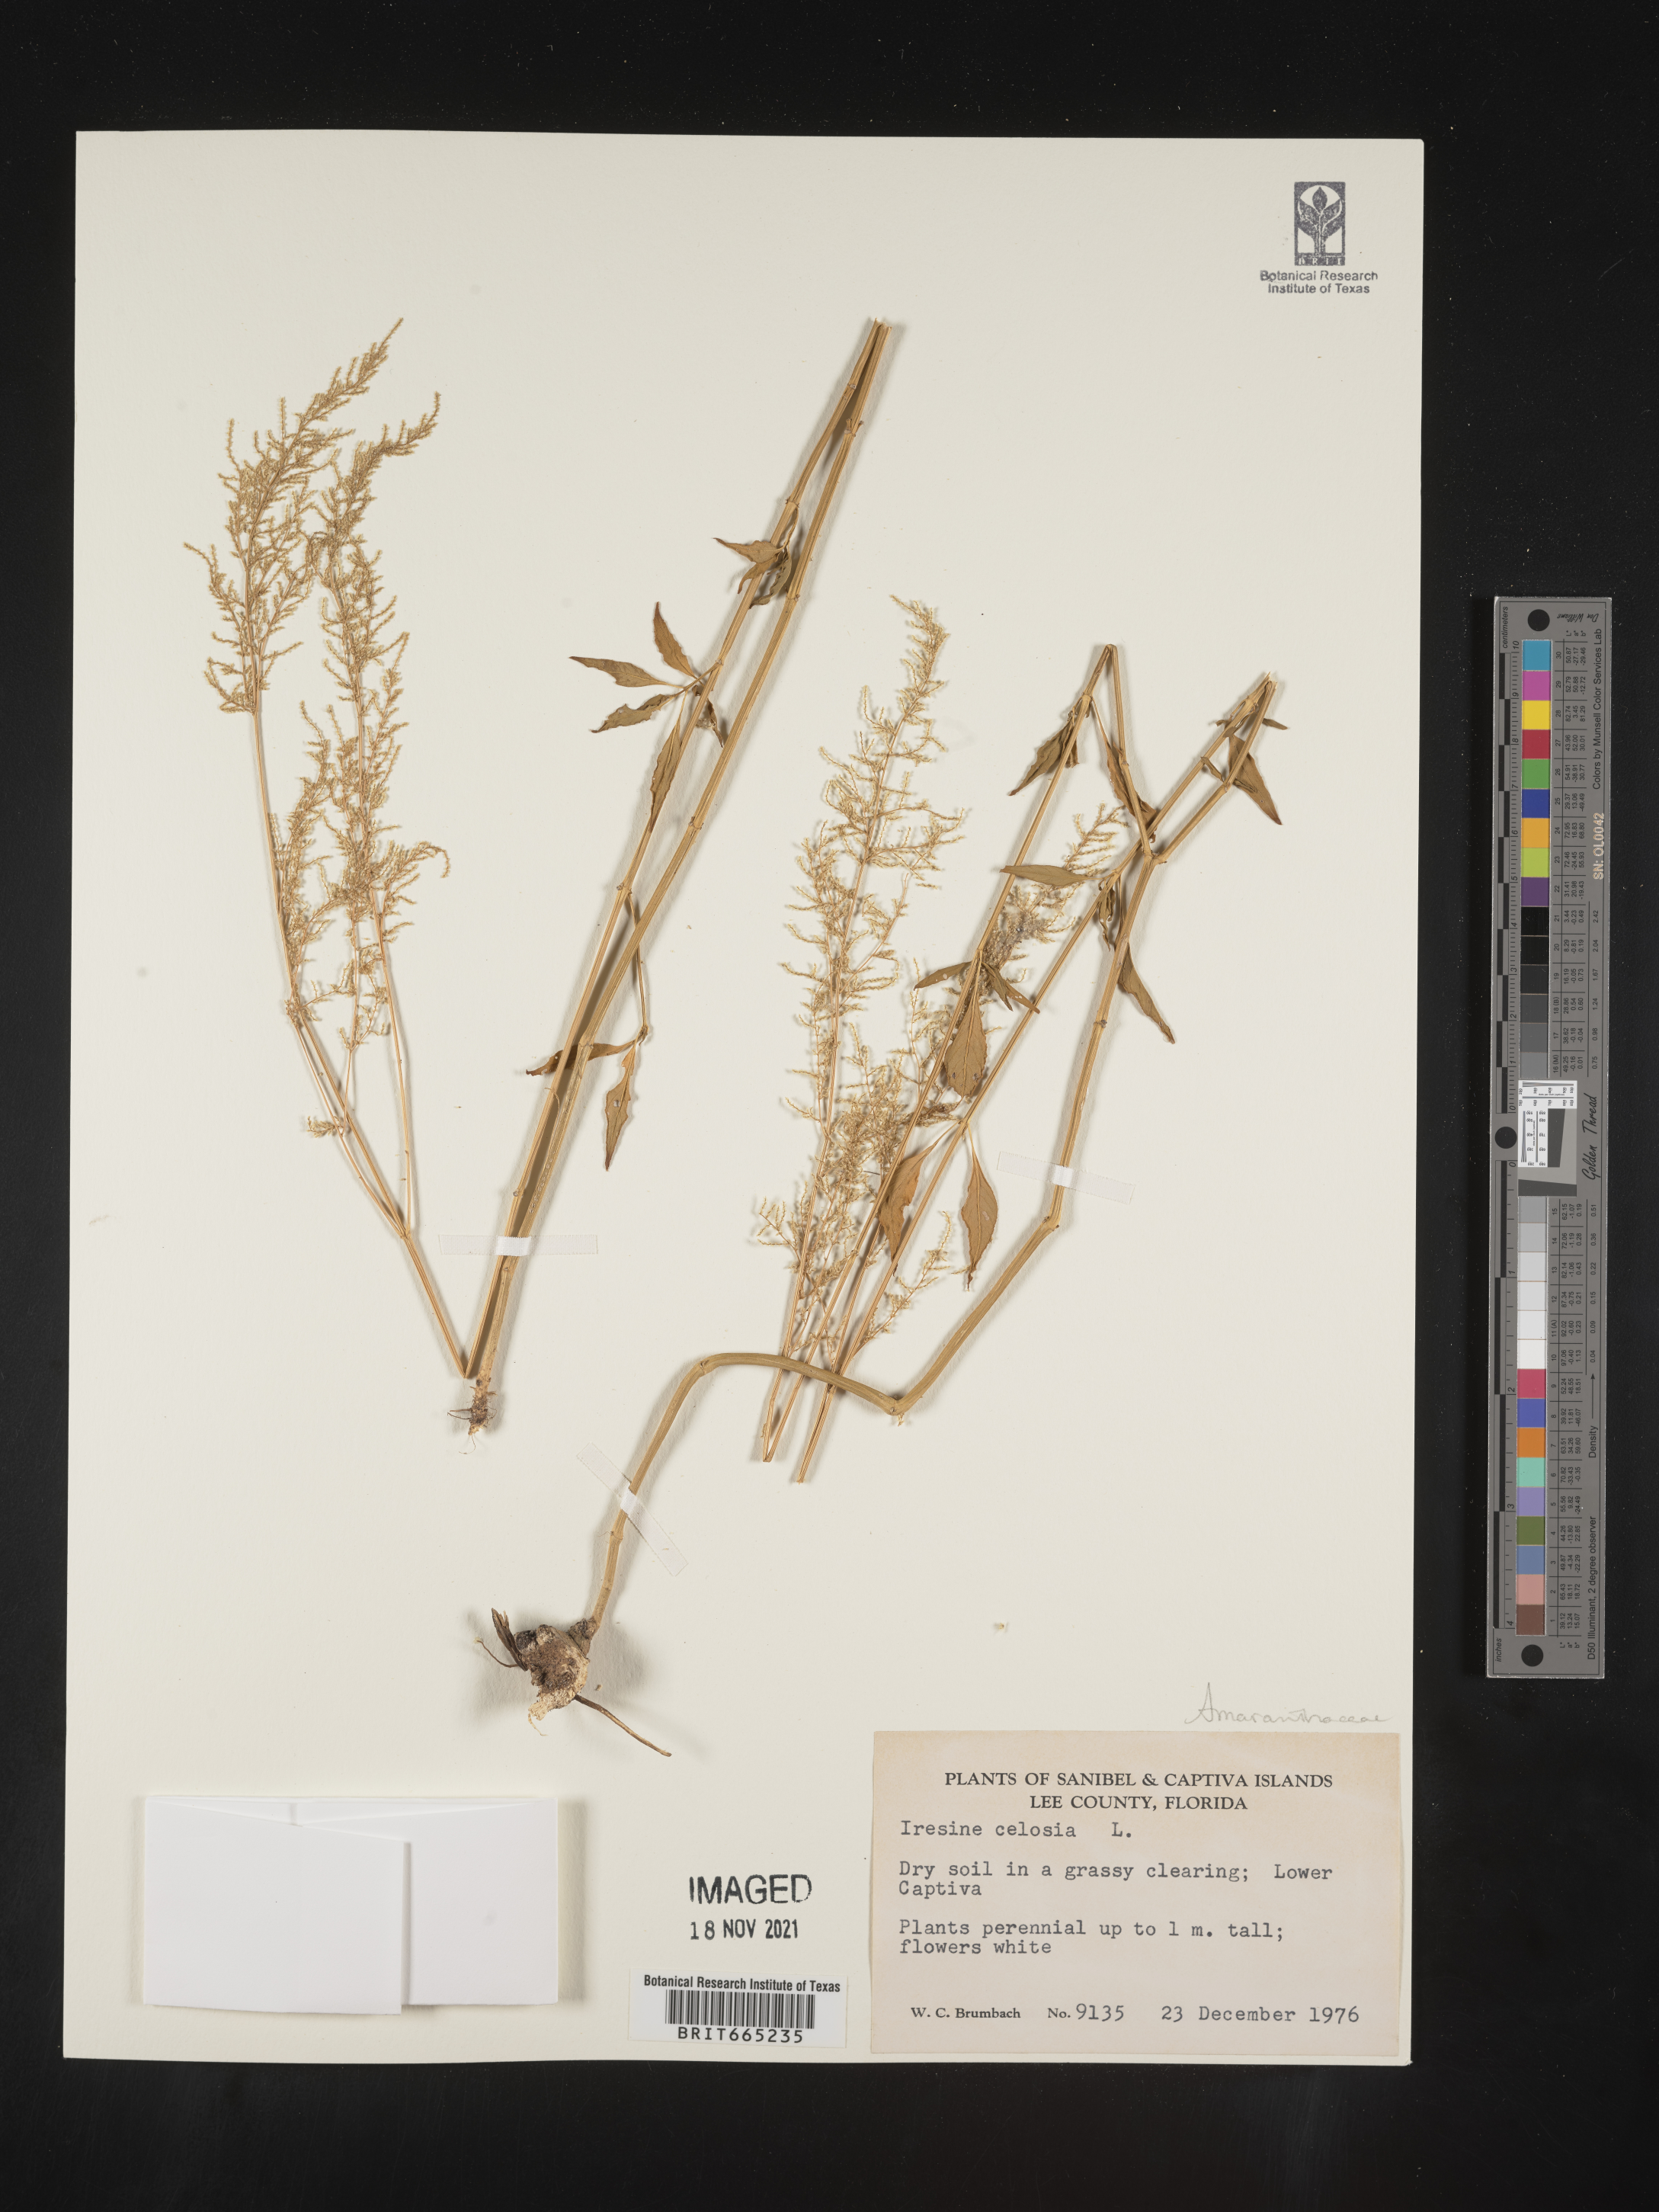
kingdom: Plantae
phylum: Tracheophyta
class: Magnoliopsida
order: Caryophyllales
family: Amaranthaceae
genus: Iresine
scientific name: Iresine
